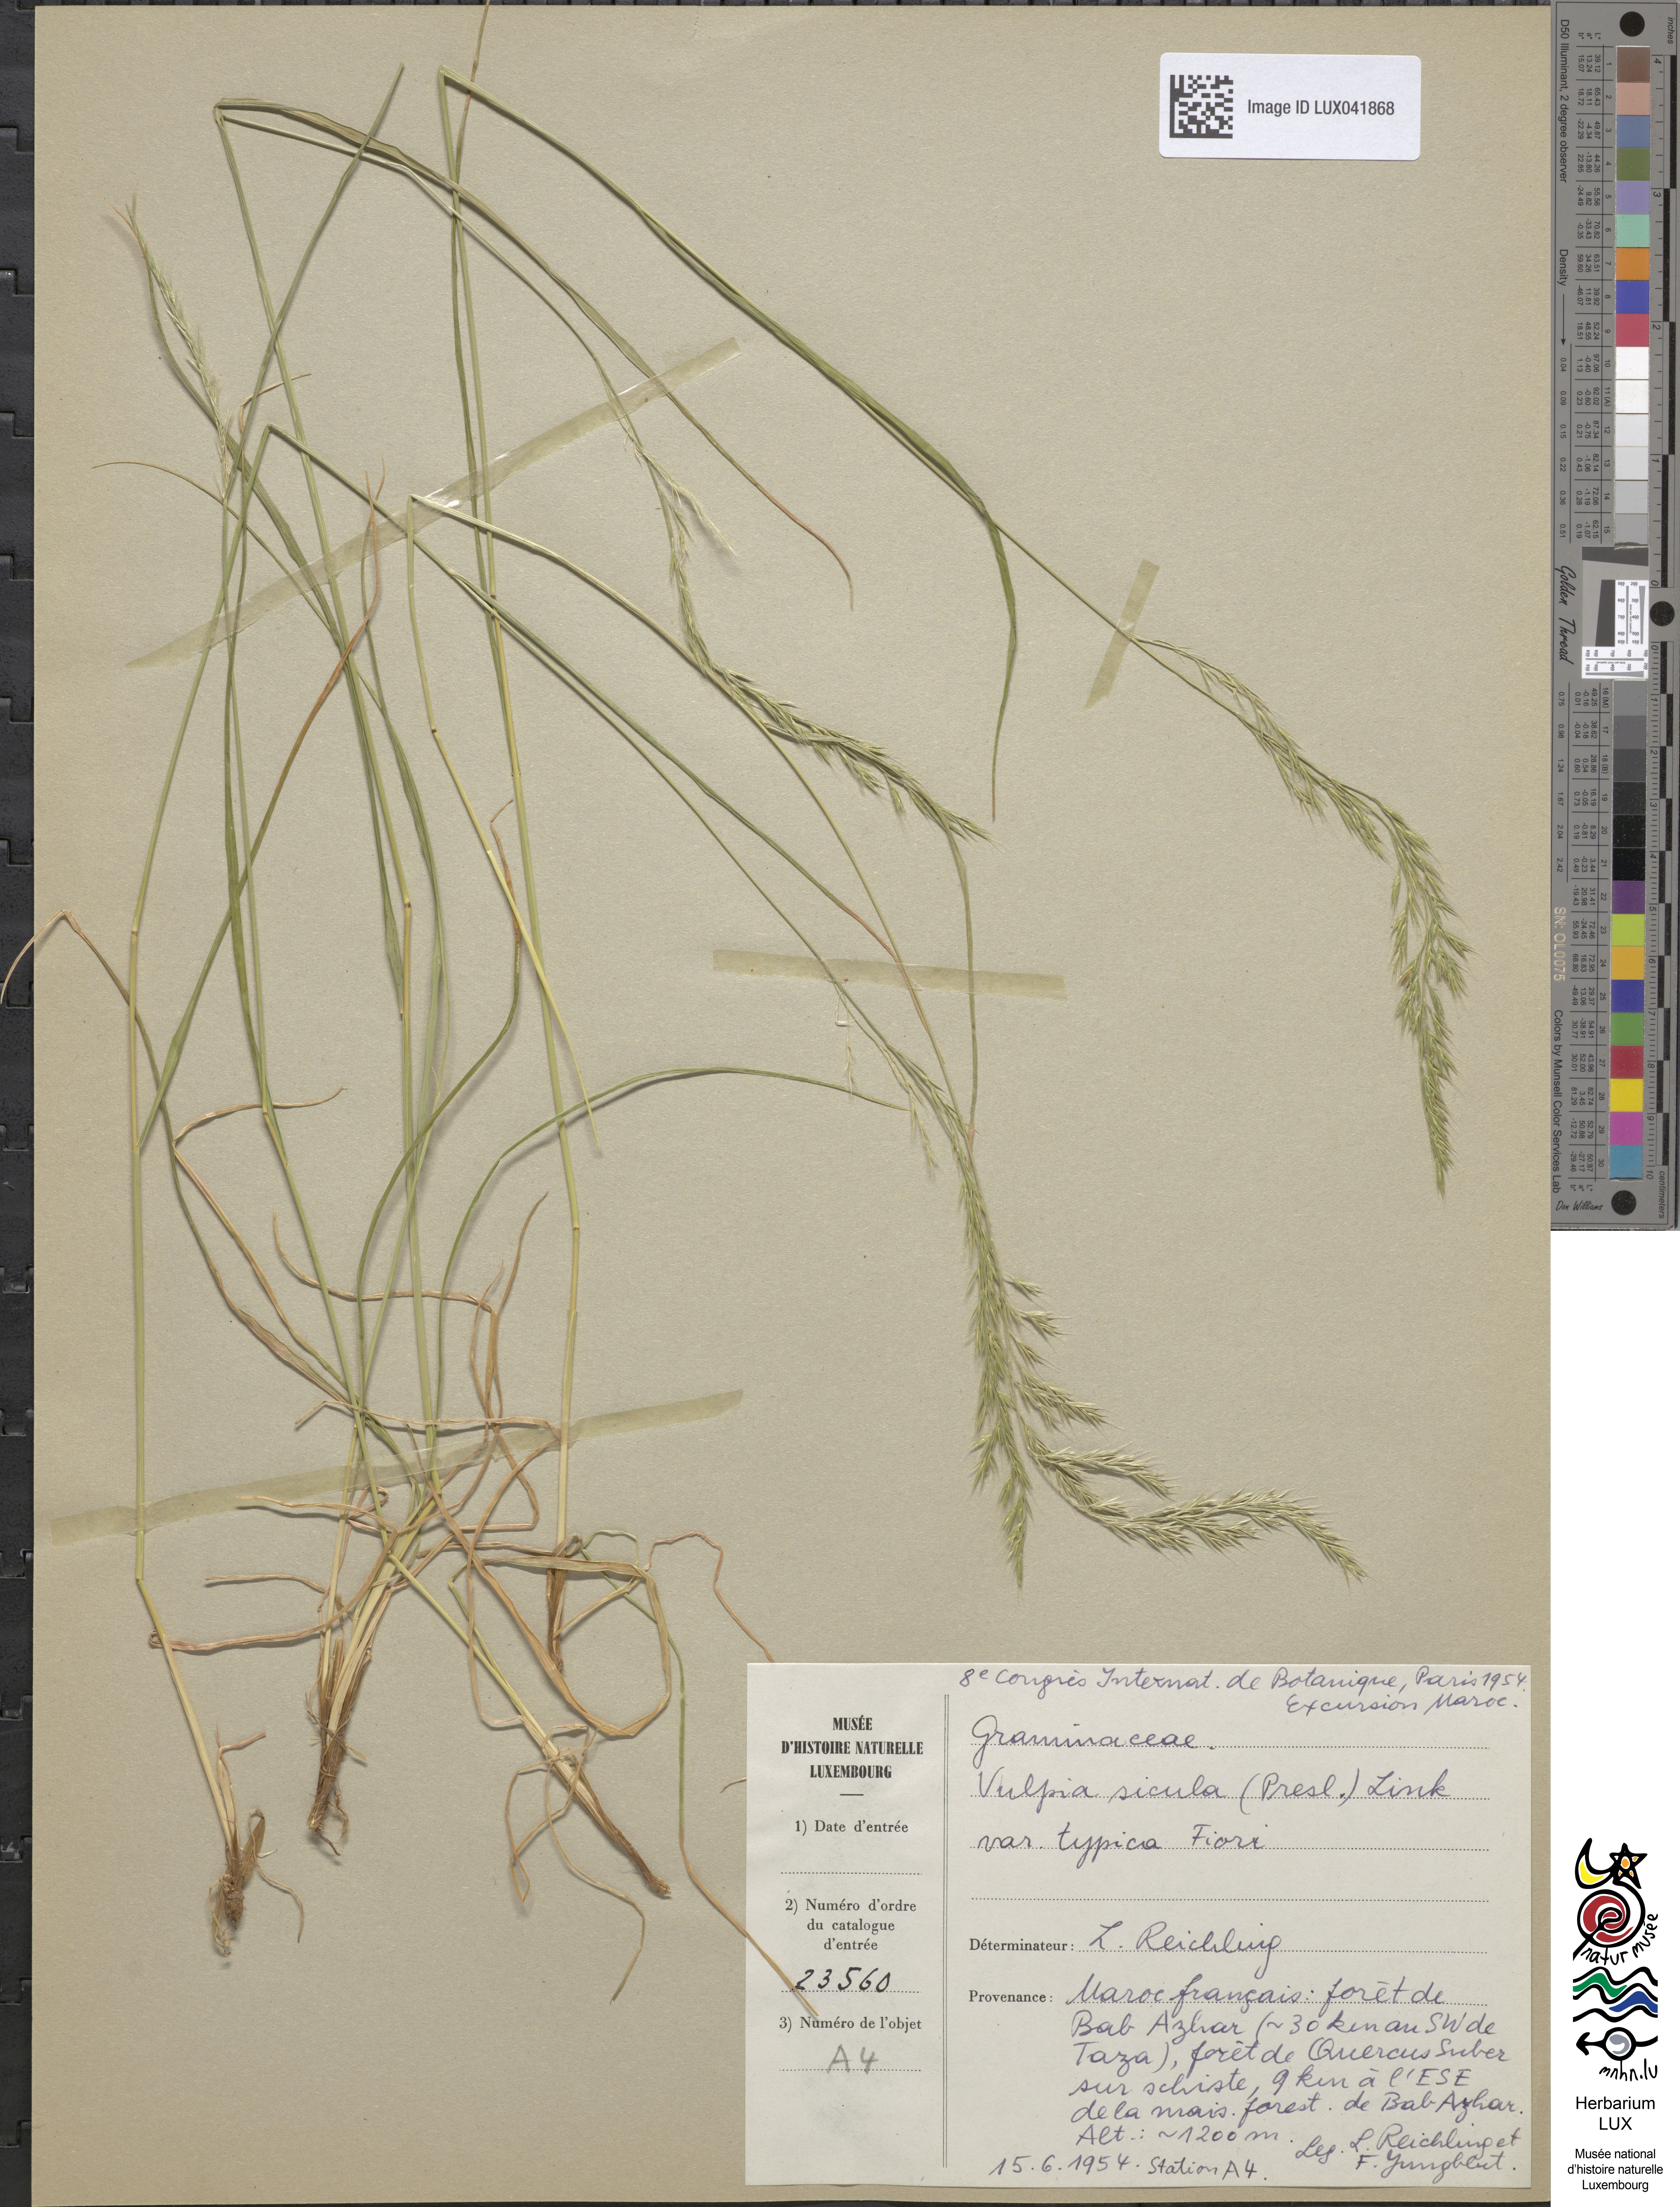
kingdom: Plantae
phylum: Tracheophyta
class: Liliopsida
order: Poales
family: Poaceae
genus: Festuca
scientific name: Festuca sicula
